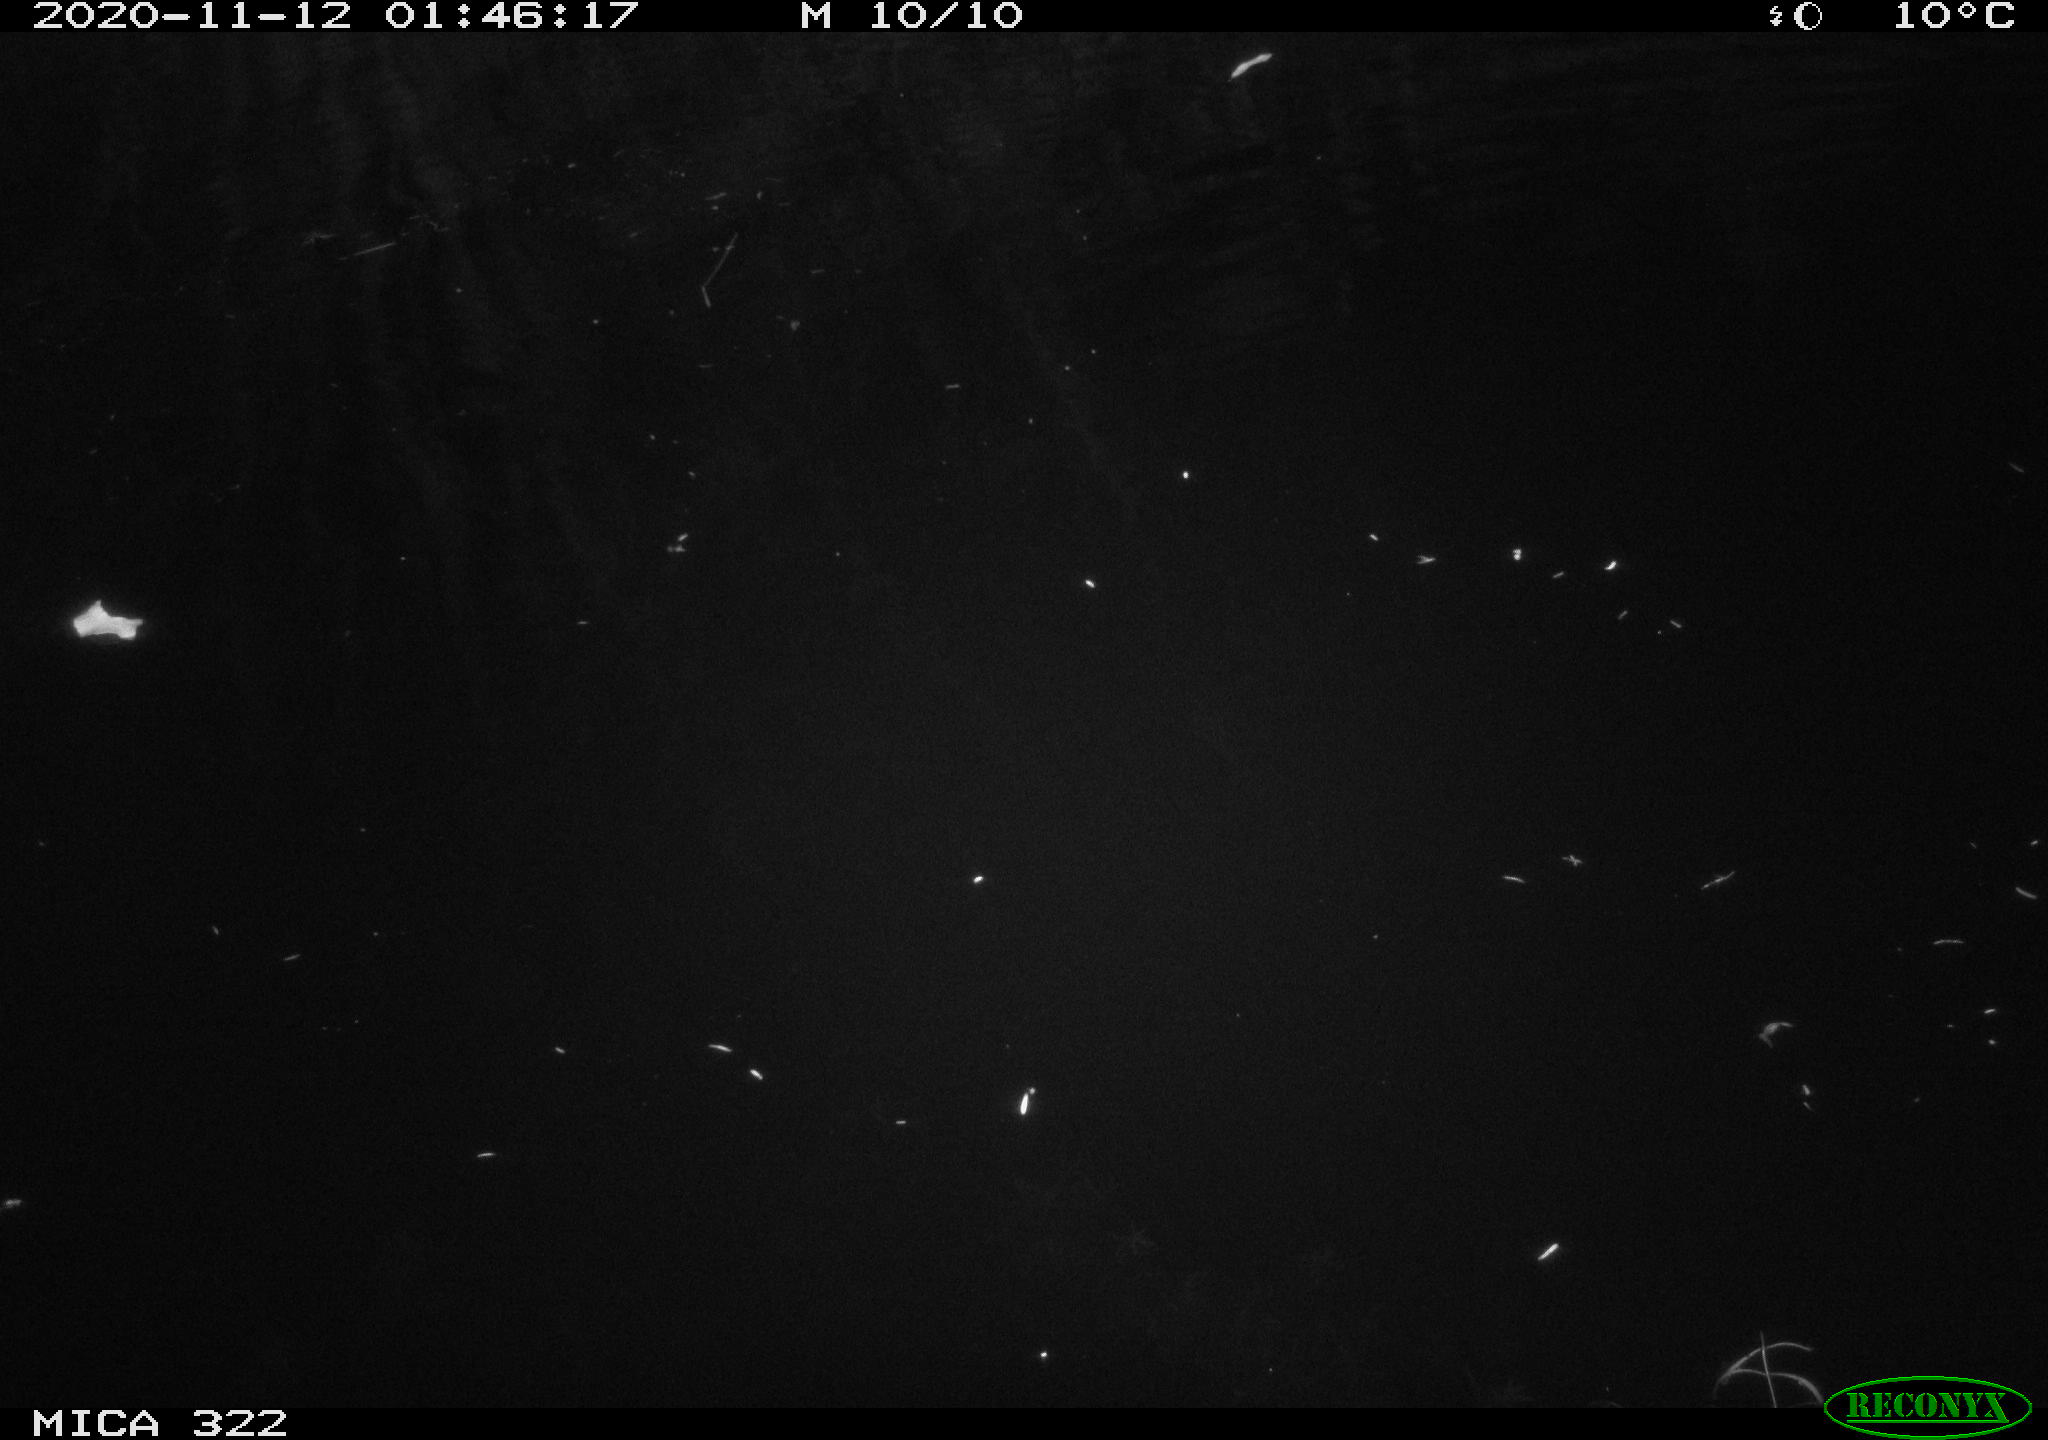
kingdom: Animalia
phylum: Chordata
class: Aves
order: Anseriformes
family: Anatidae
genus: Mareca
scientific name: Mareca strepera
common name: Gadwall
